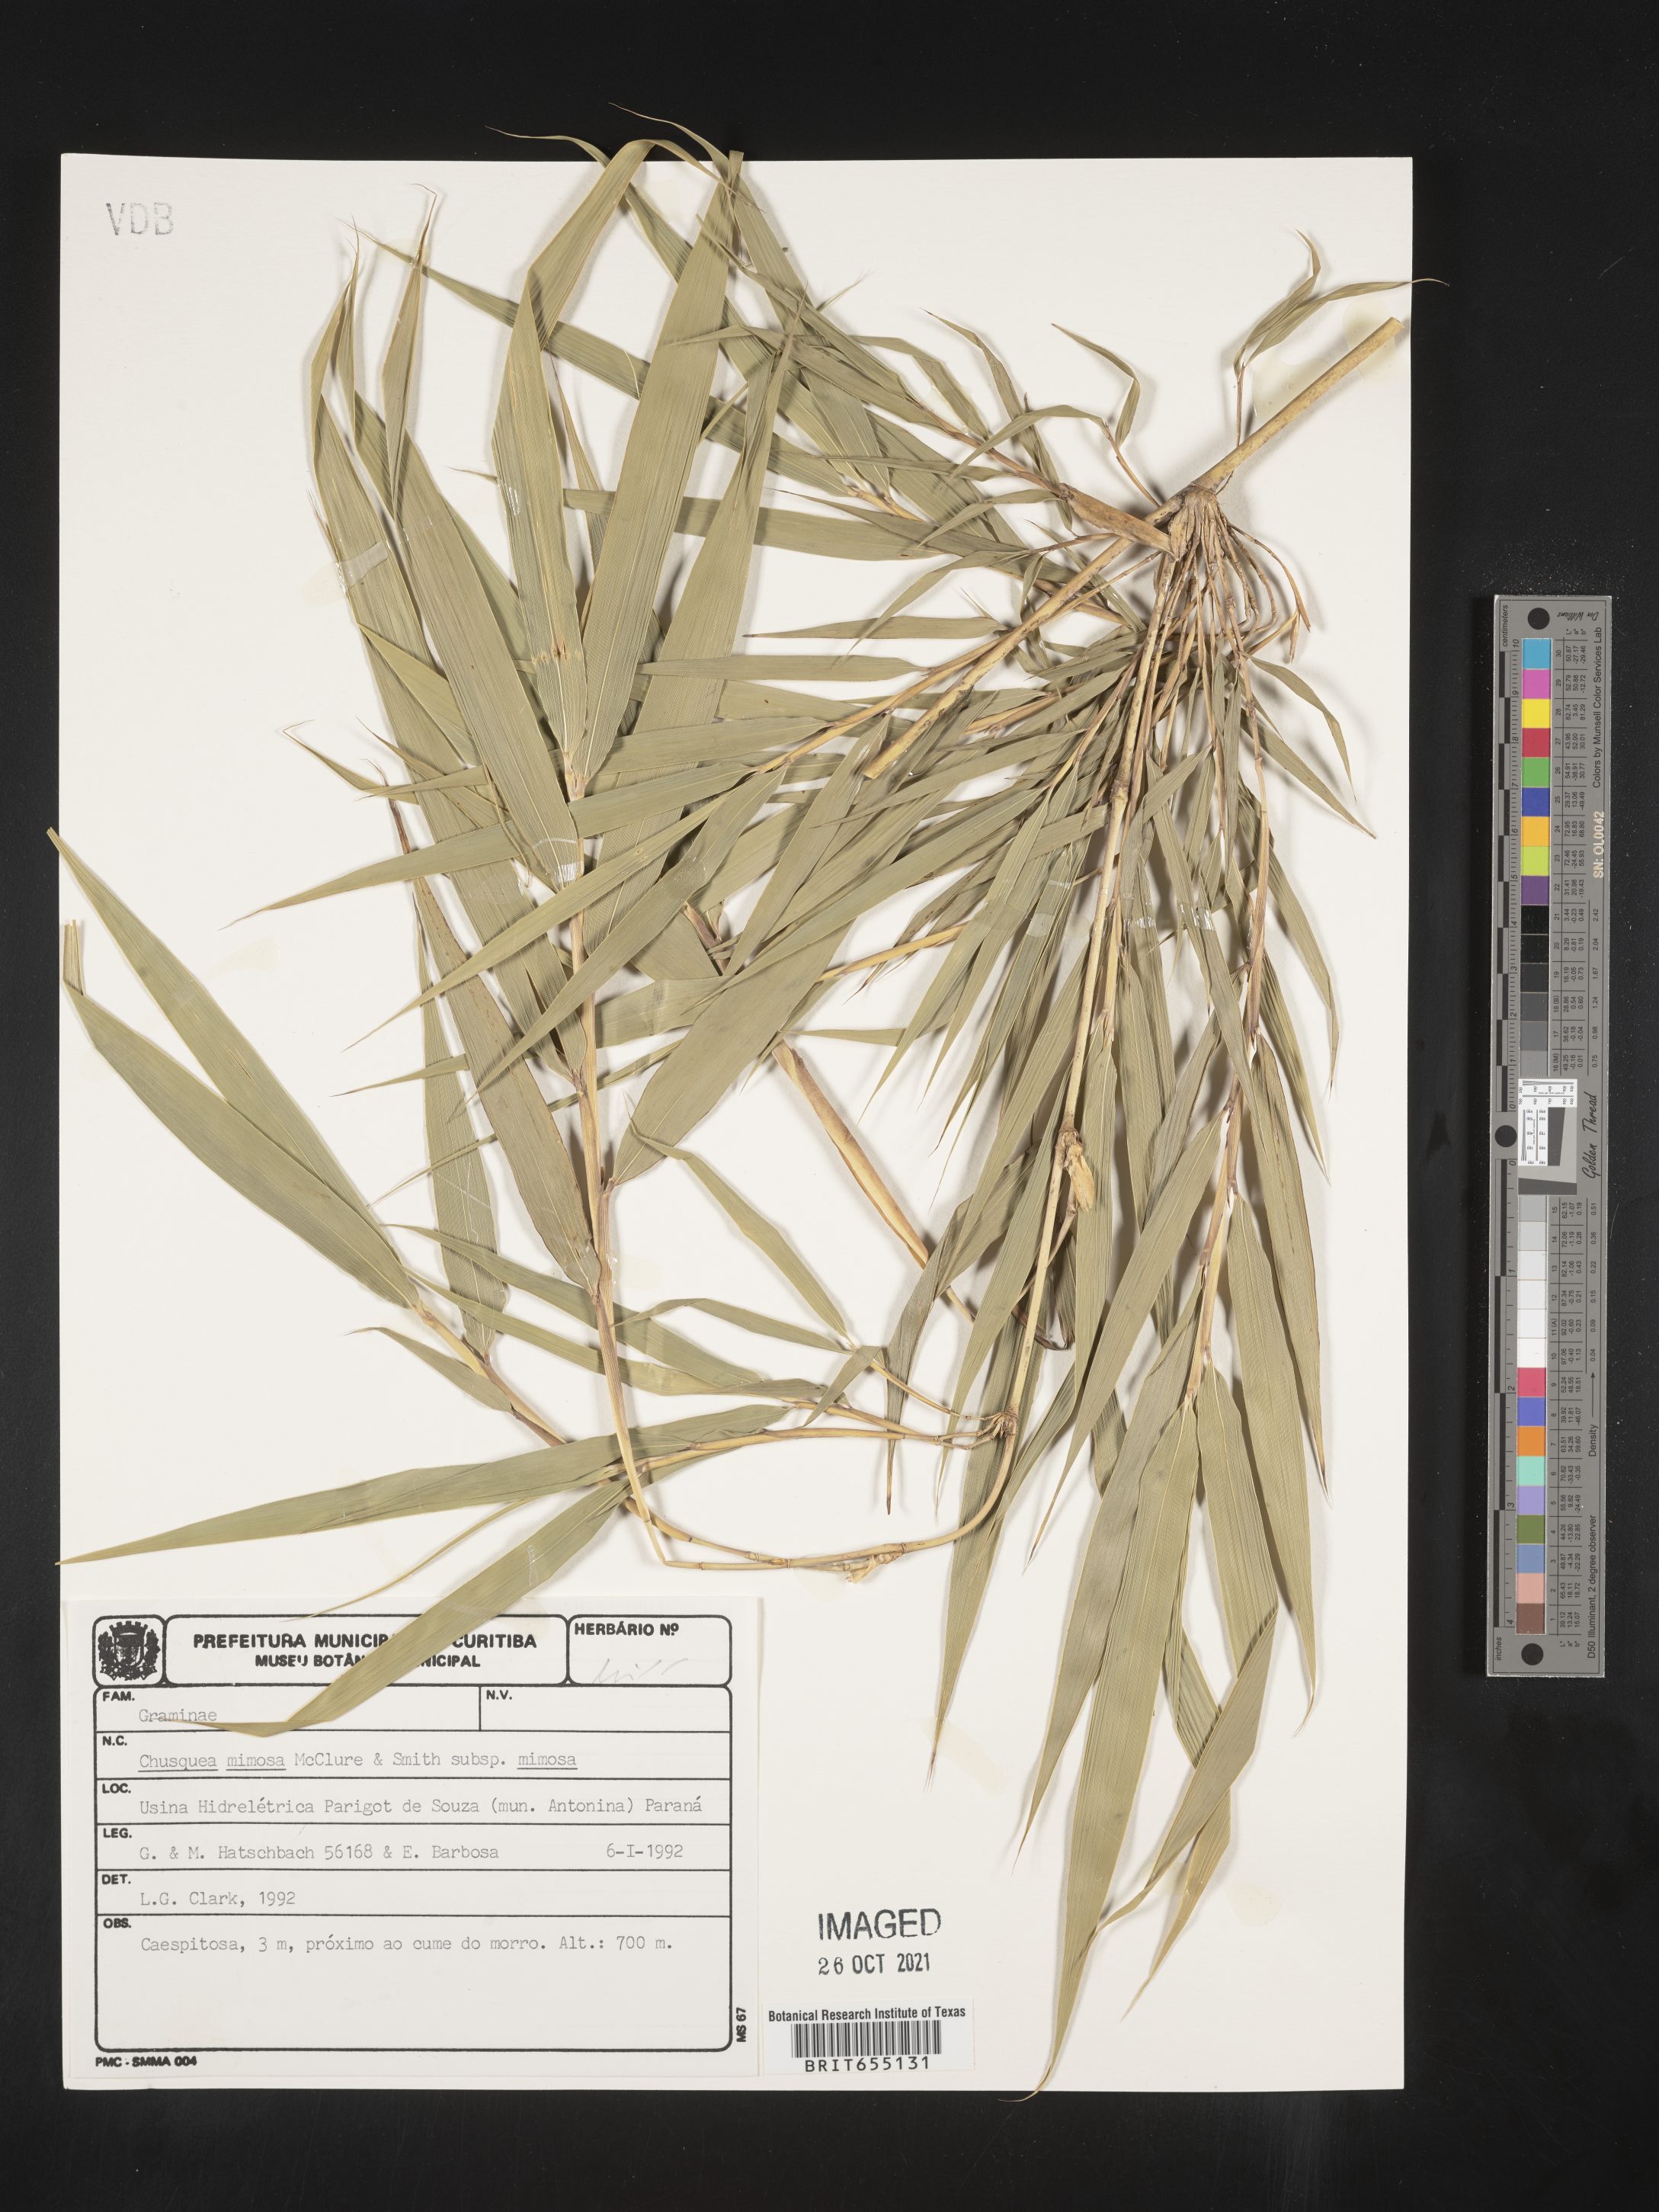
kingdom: Plantae
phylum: Tracheophyta
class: Liliopsida
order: Poales
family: Poaceae
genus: Chusquea
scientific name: Chusquea
